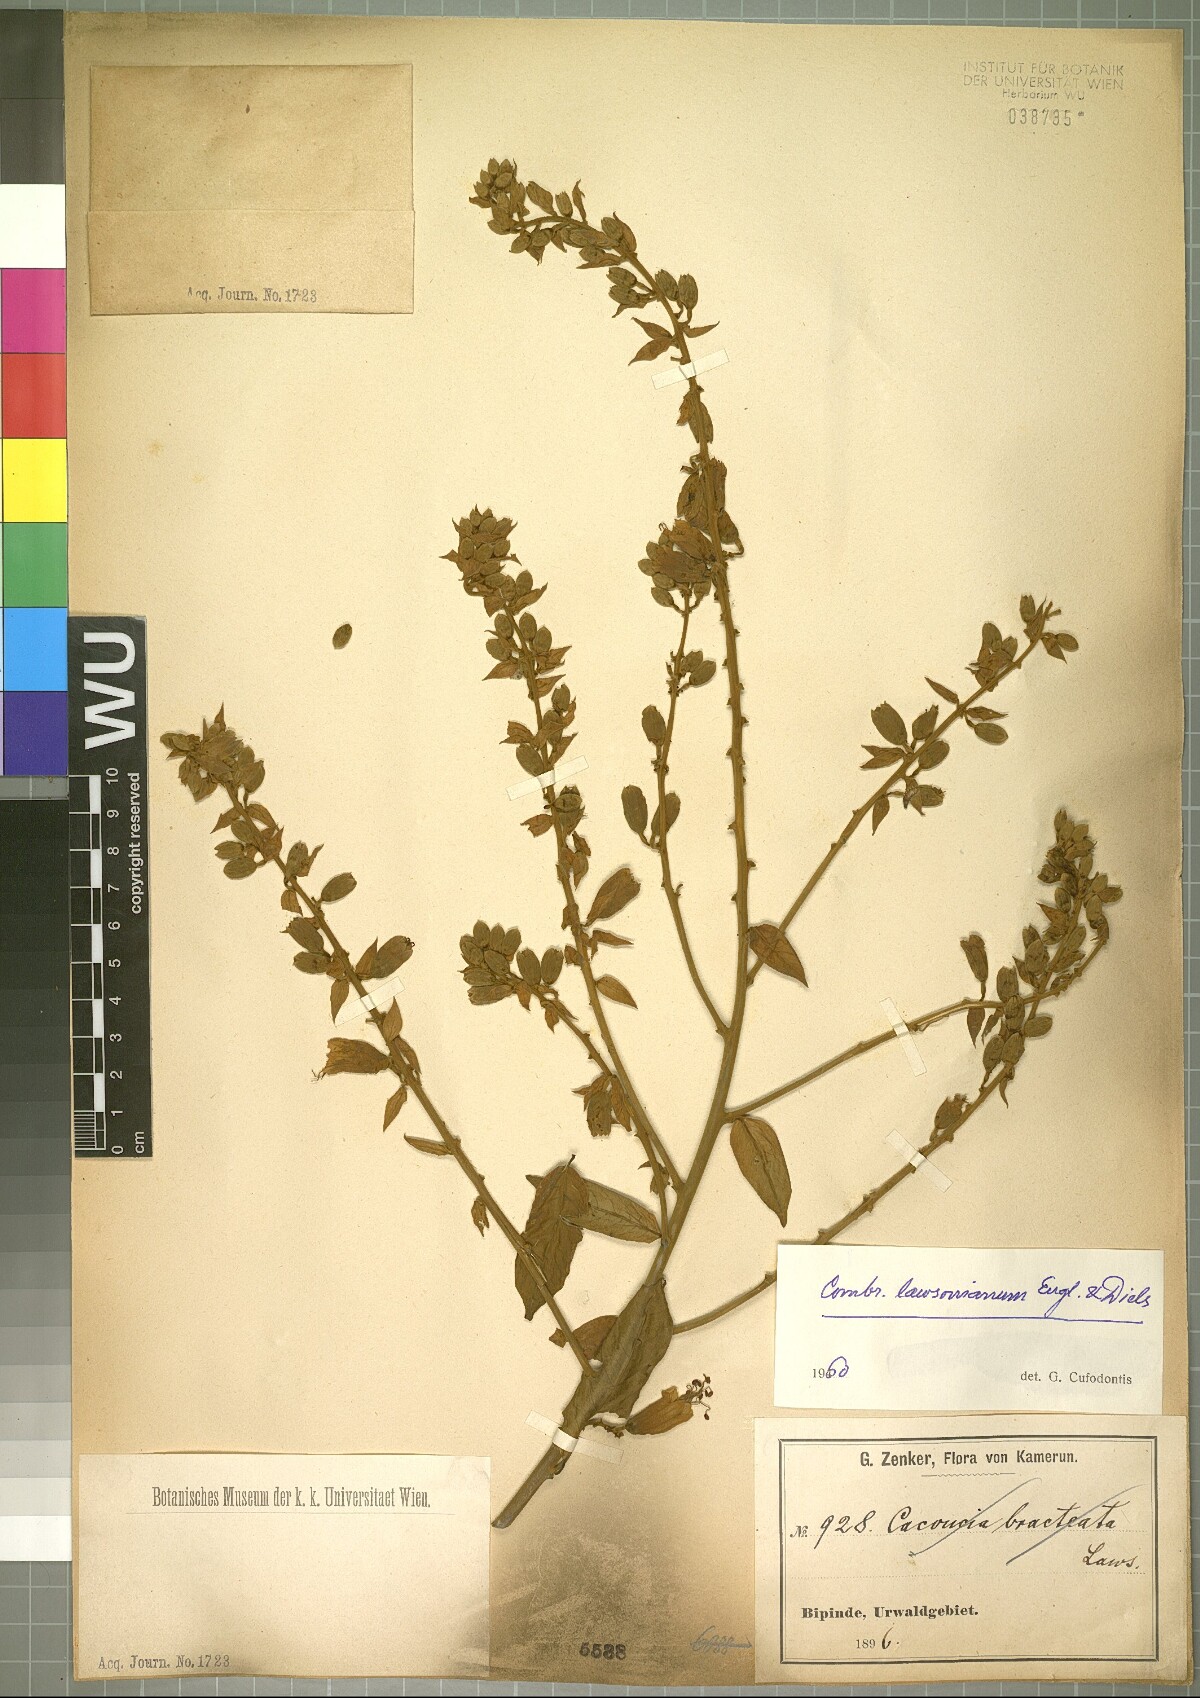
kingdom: Plantae
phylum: Tracheophyta
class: Magnoliopsida
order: Myrtales
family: Combretaceae
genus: Combretum
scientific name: Combretum platypterum
